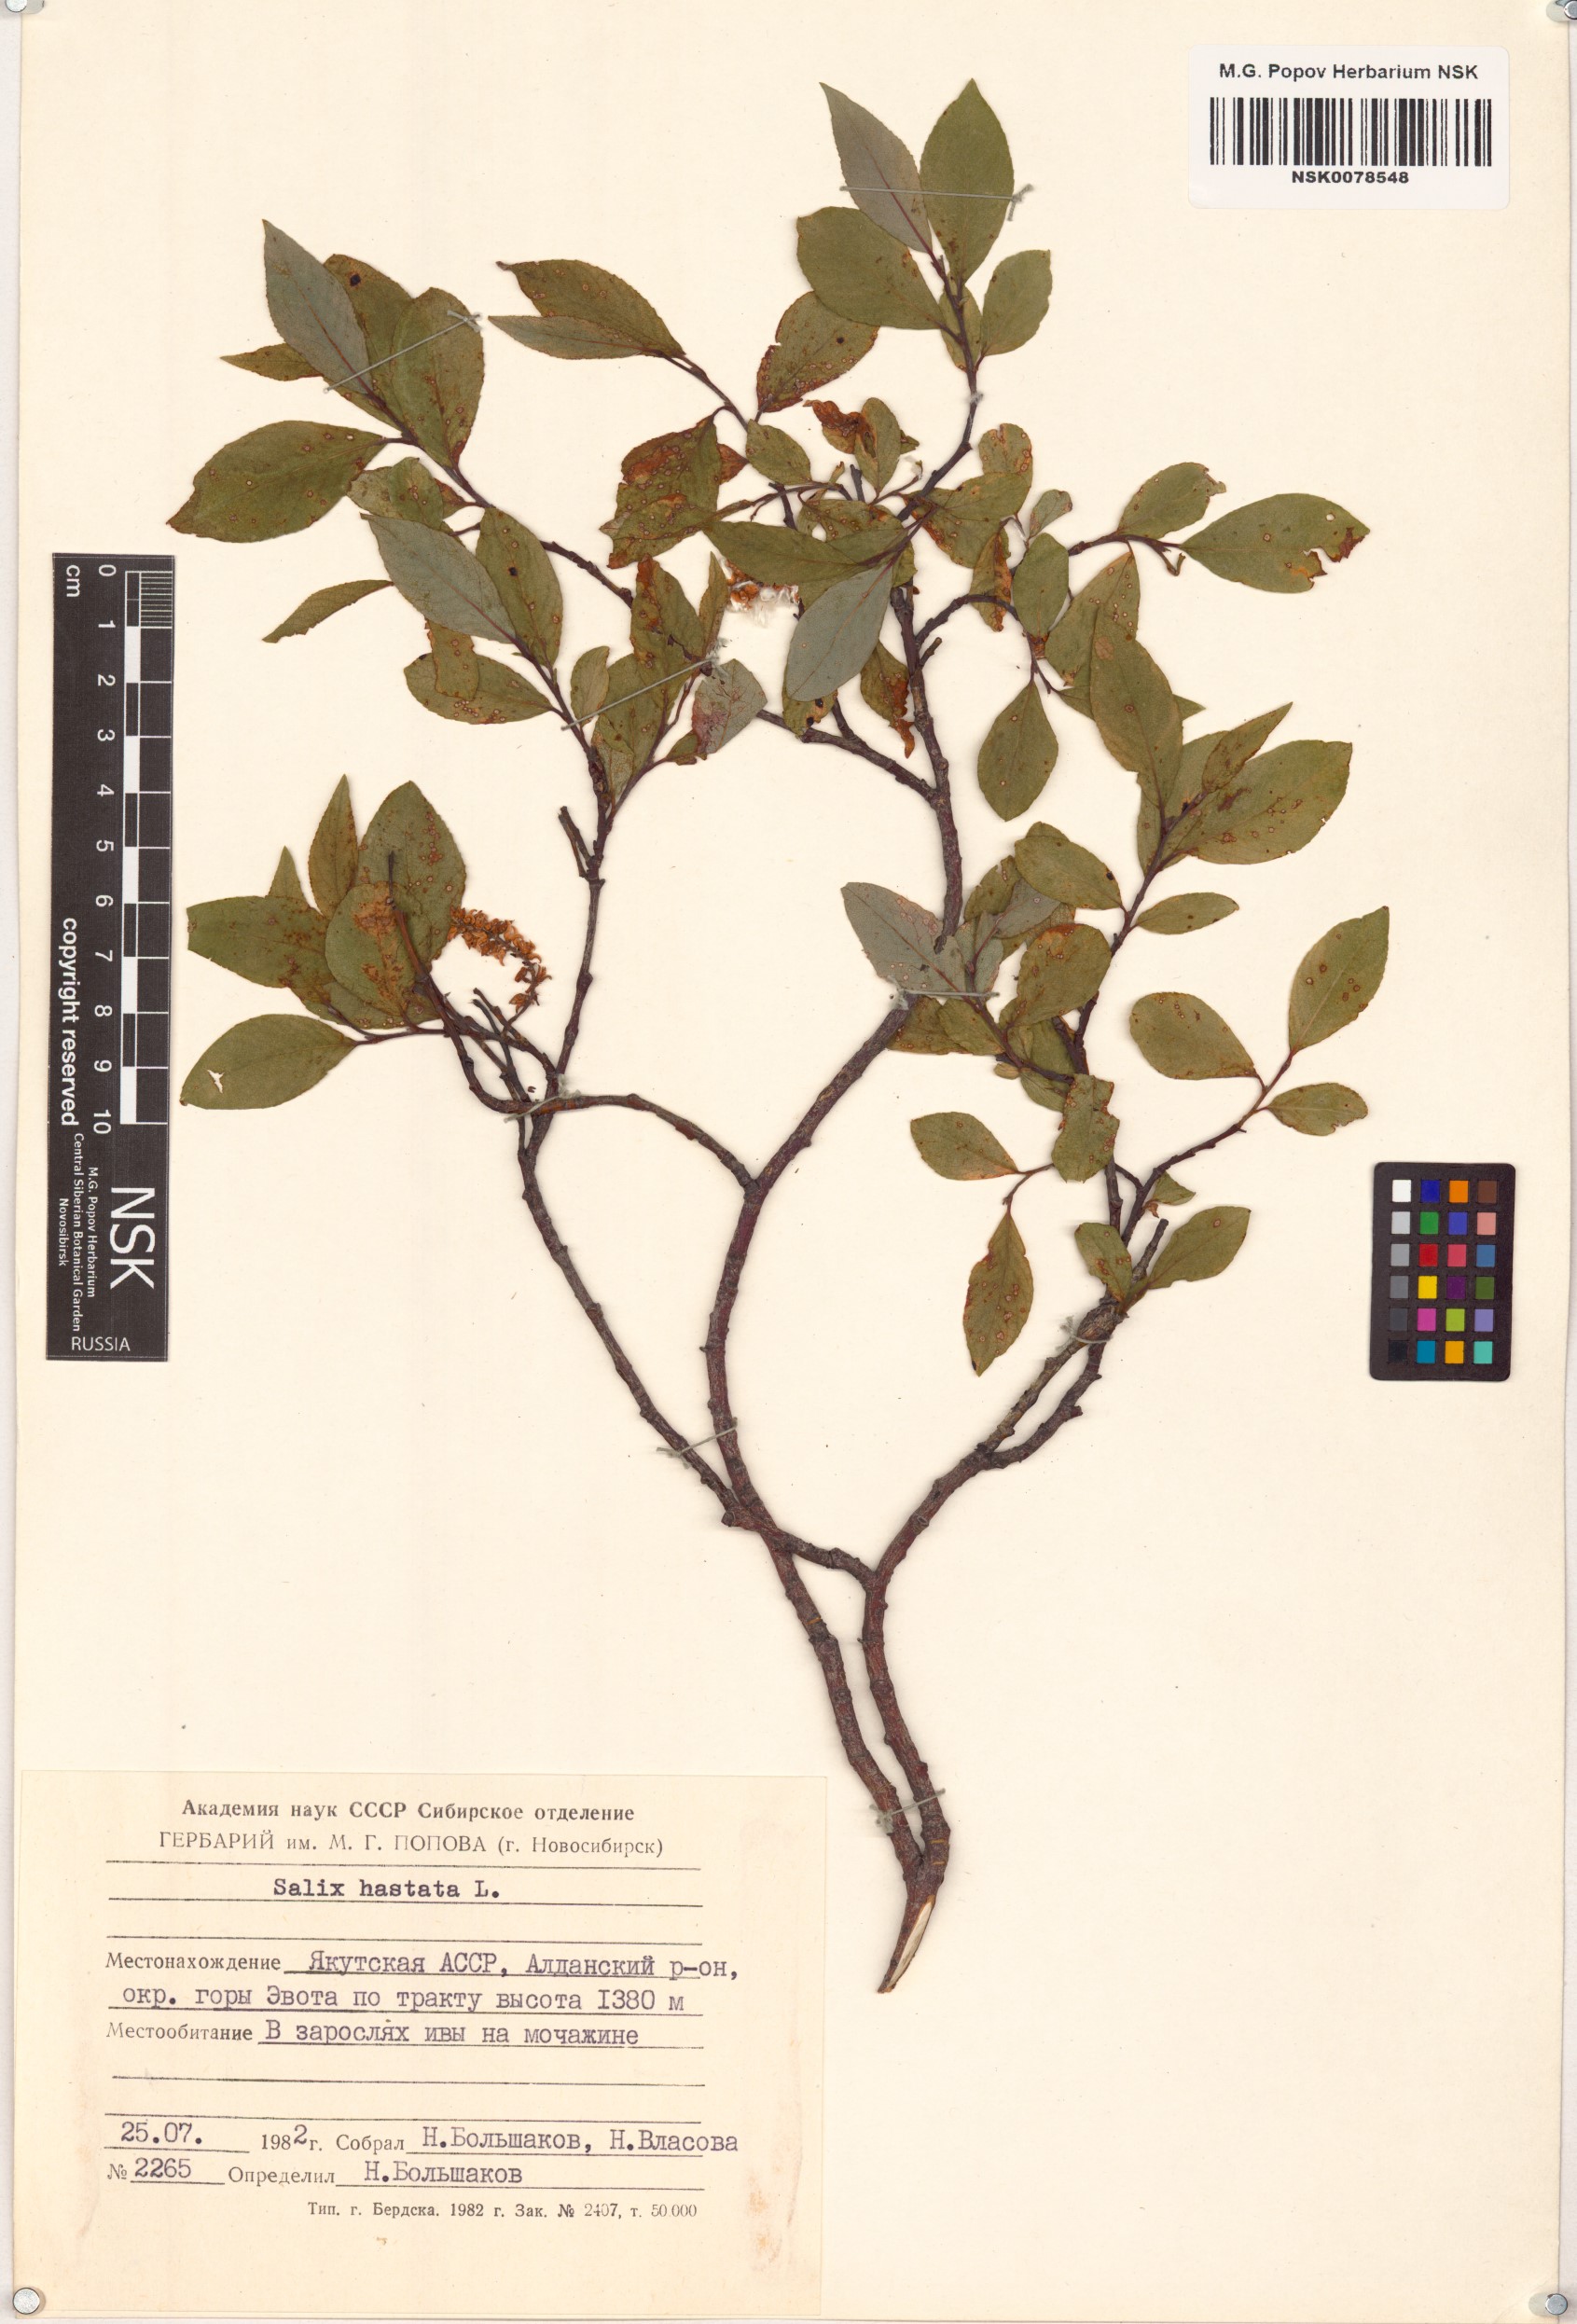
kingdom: Plantae
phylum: Tracheophyta
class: Magnoliopsida
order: Malpighiales
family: Salicaceae
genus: Salix
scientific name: Salix hastata
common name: Halberd willow
